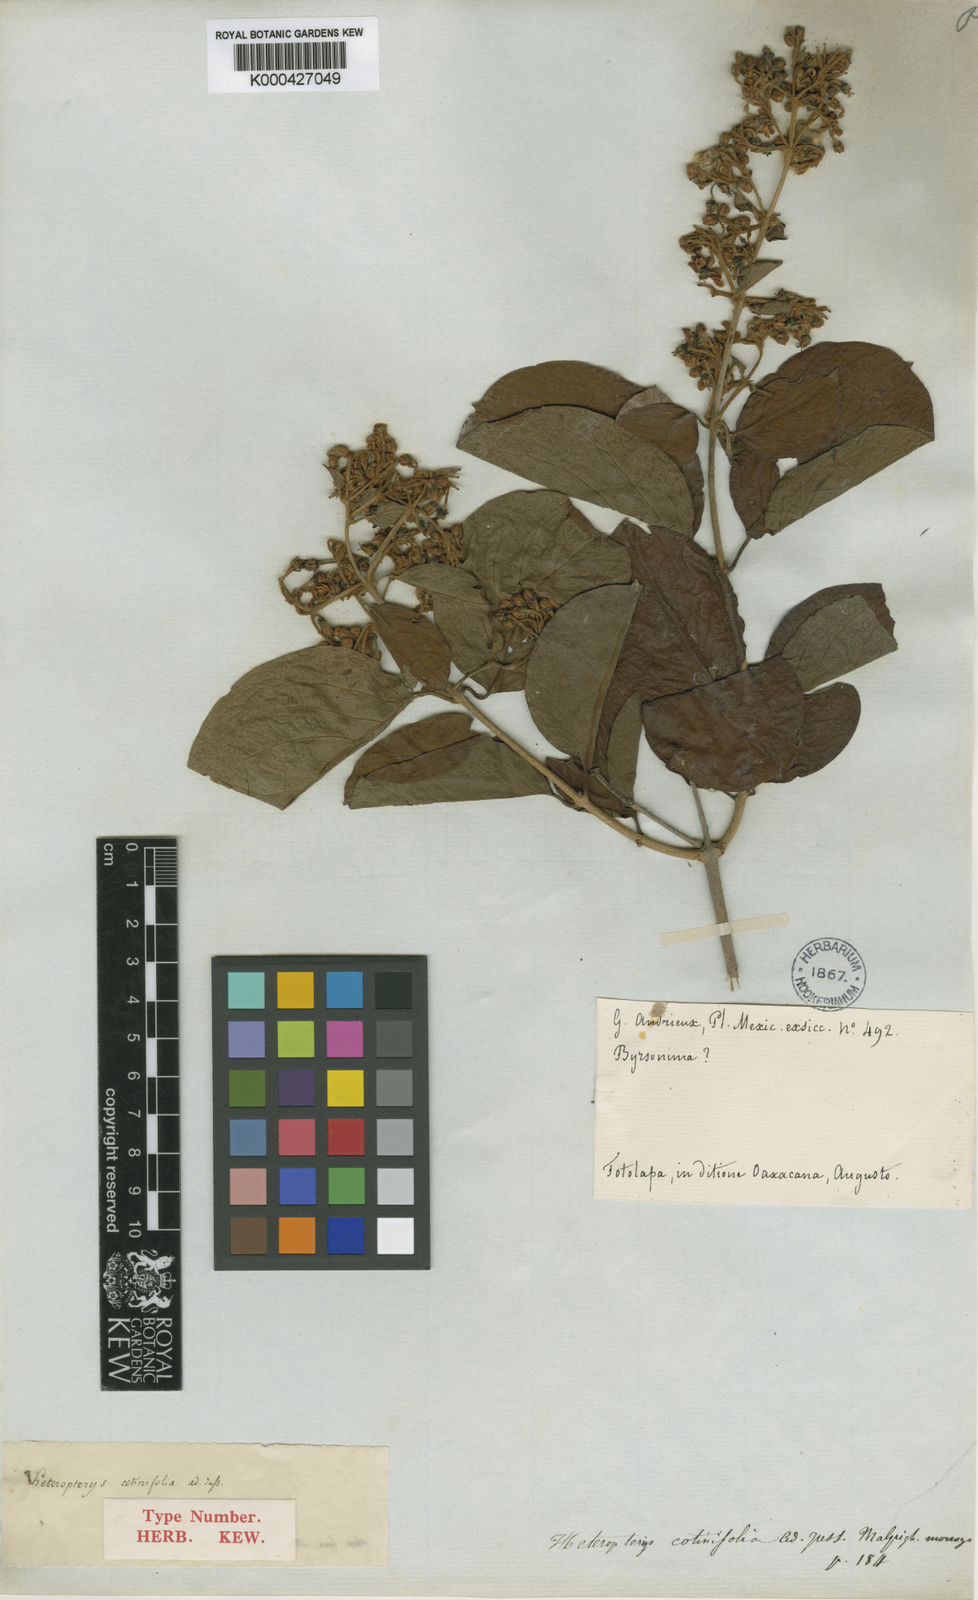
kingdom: Plantae
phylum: Tracheophyta
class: Magnoliopsida
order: Malpighiales
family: Malpighiaceae
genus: Heteropterys
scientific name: Heteropterys cotinifolia
